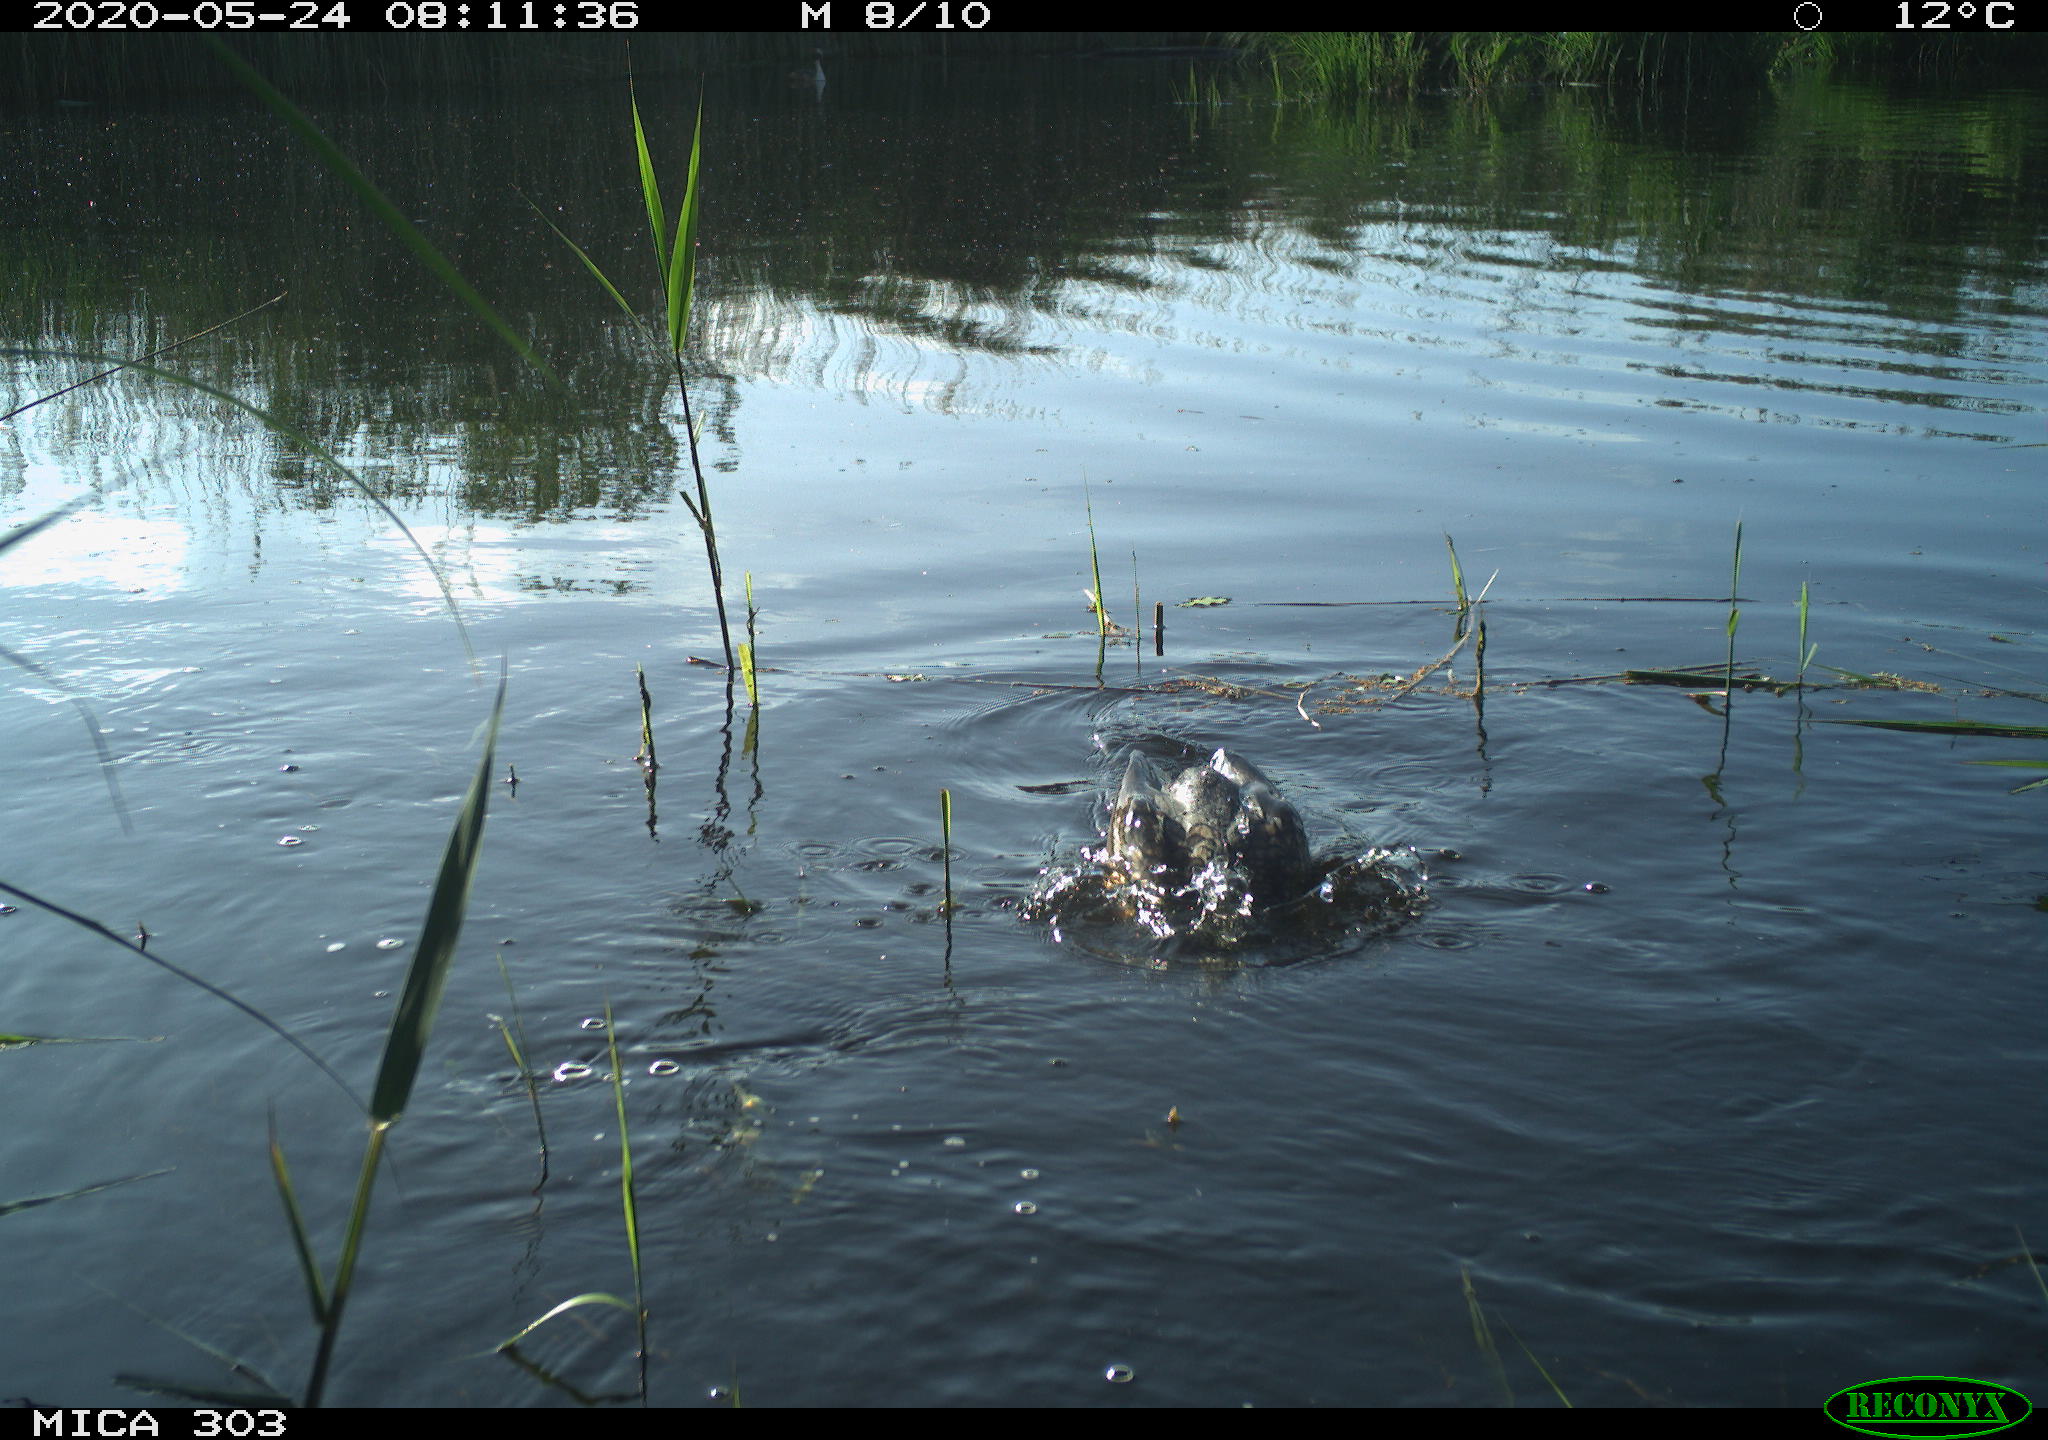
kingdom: Animalia
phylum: Chordata
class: Aves
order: Suliformes
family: Phalacrocoracidae
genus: Phalacrocorax
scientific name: Phalacrocorax carbo
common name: Great cormorant
